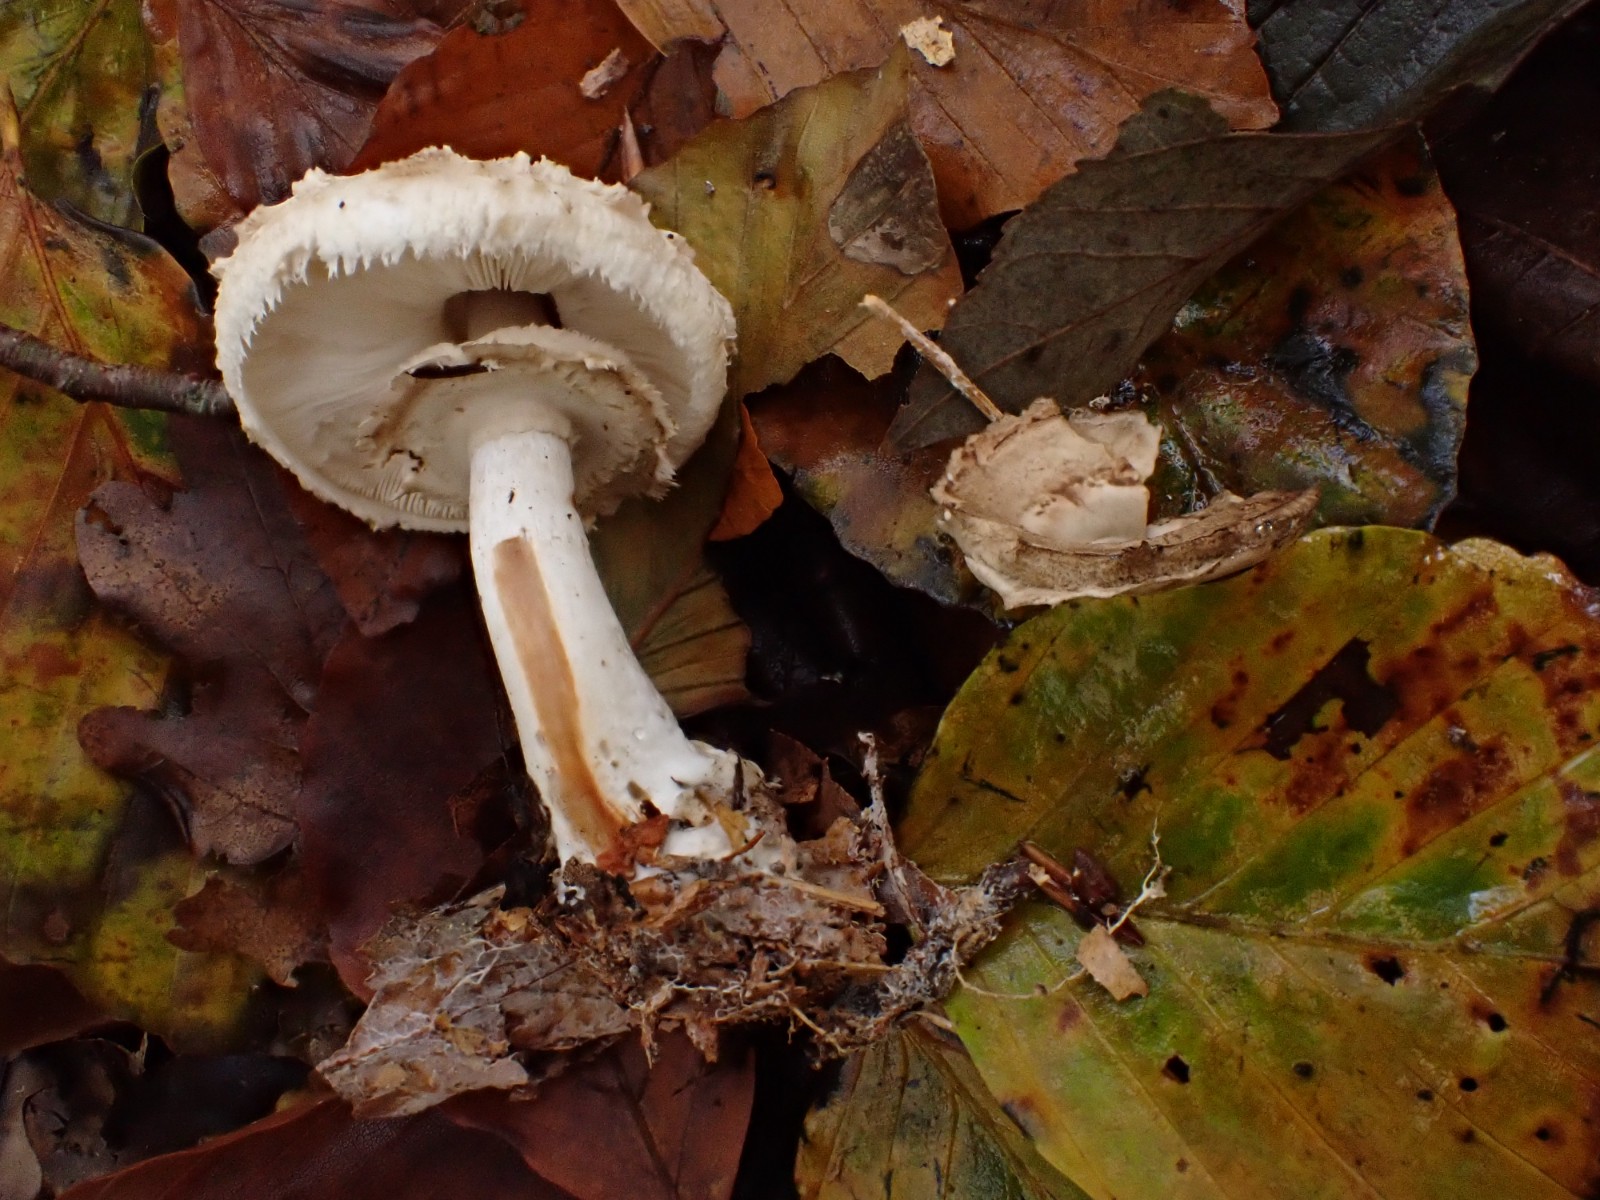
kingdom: Fungi
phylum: Basidiomycota
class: Agaricomycetes
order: Agaricales
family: Agaricaceae
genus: Chlorophyllum
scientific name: Chlorophyllum rhacodes
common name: ægte rabarberhat
